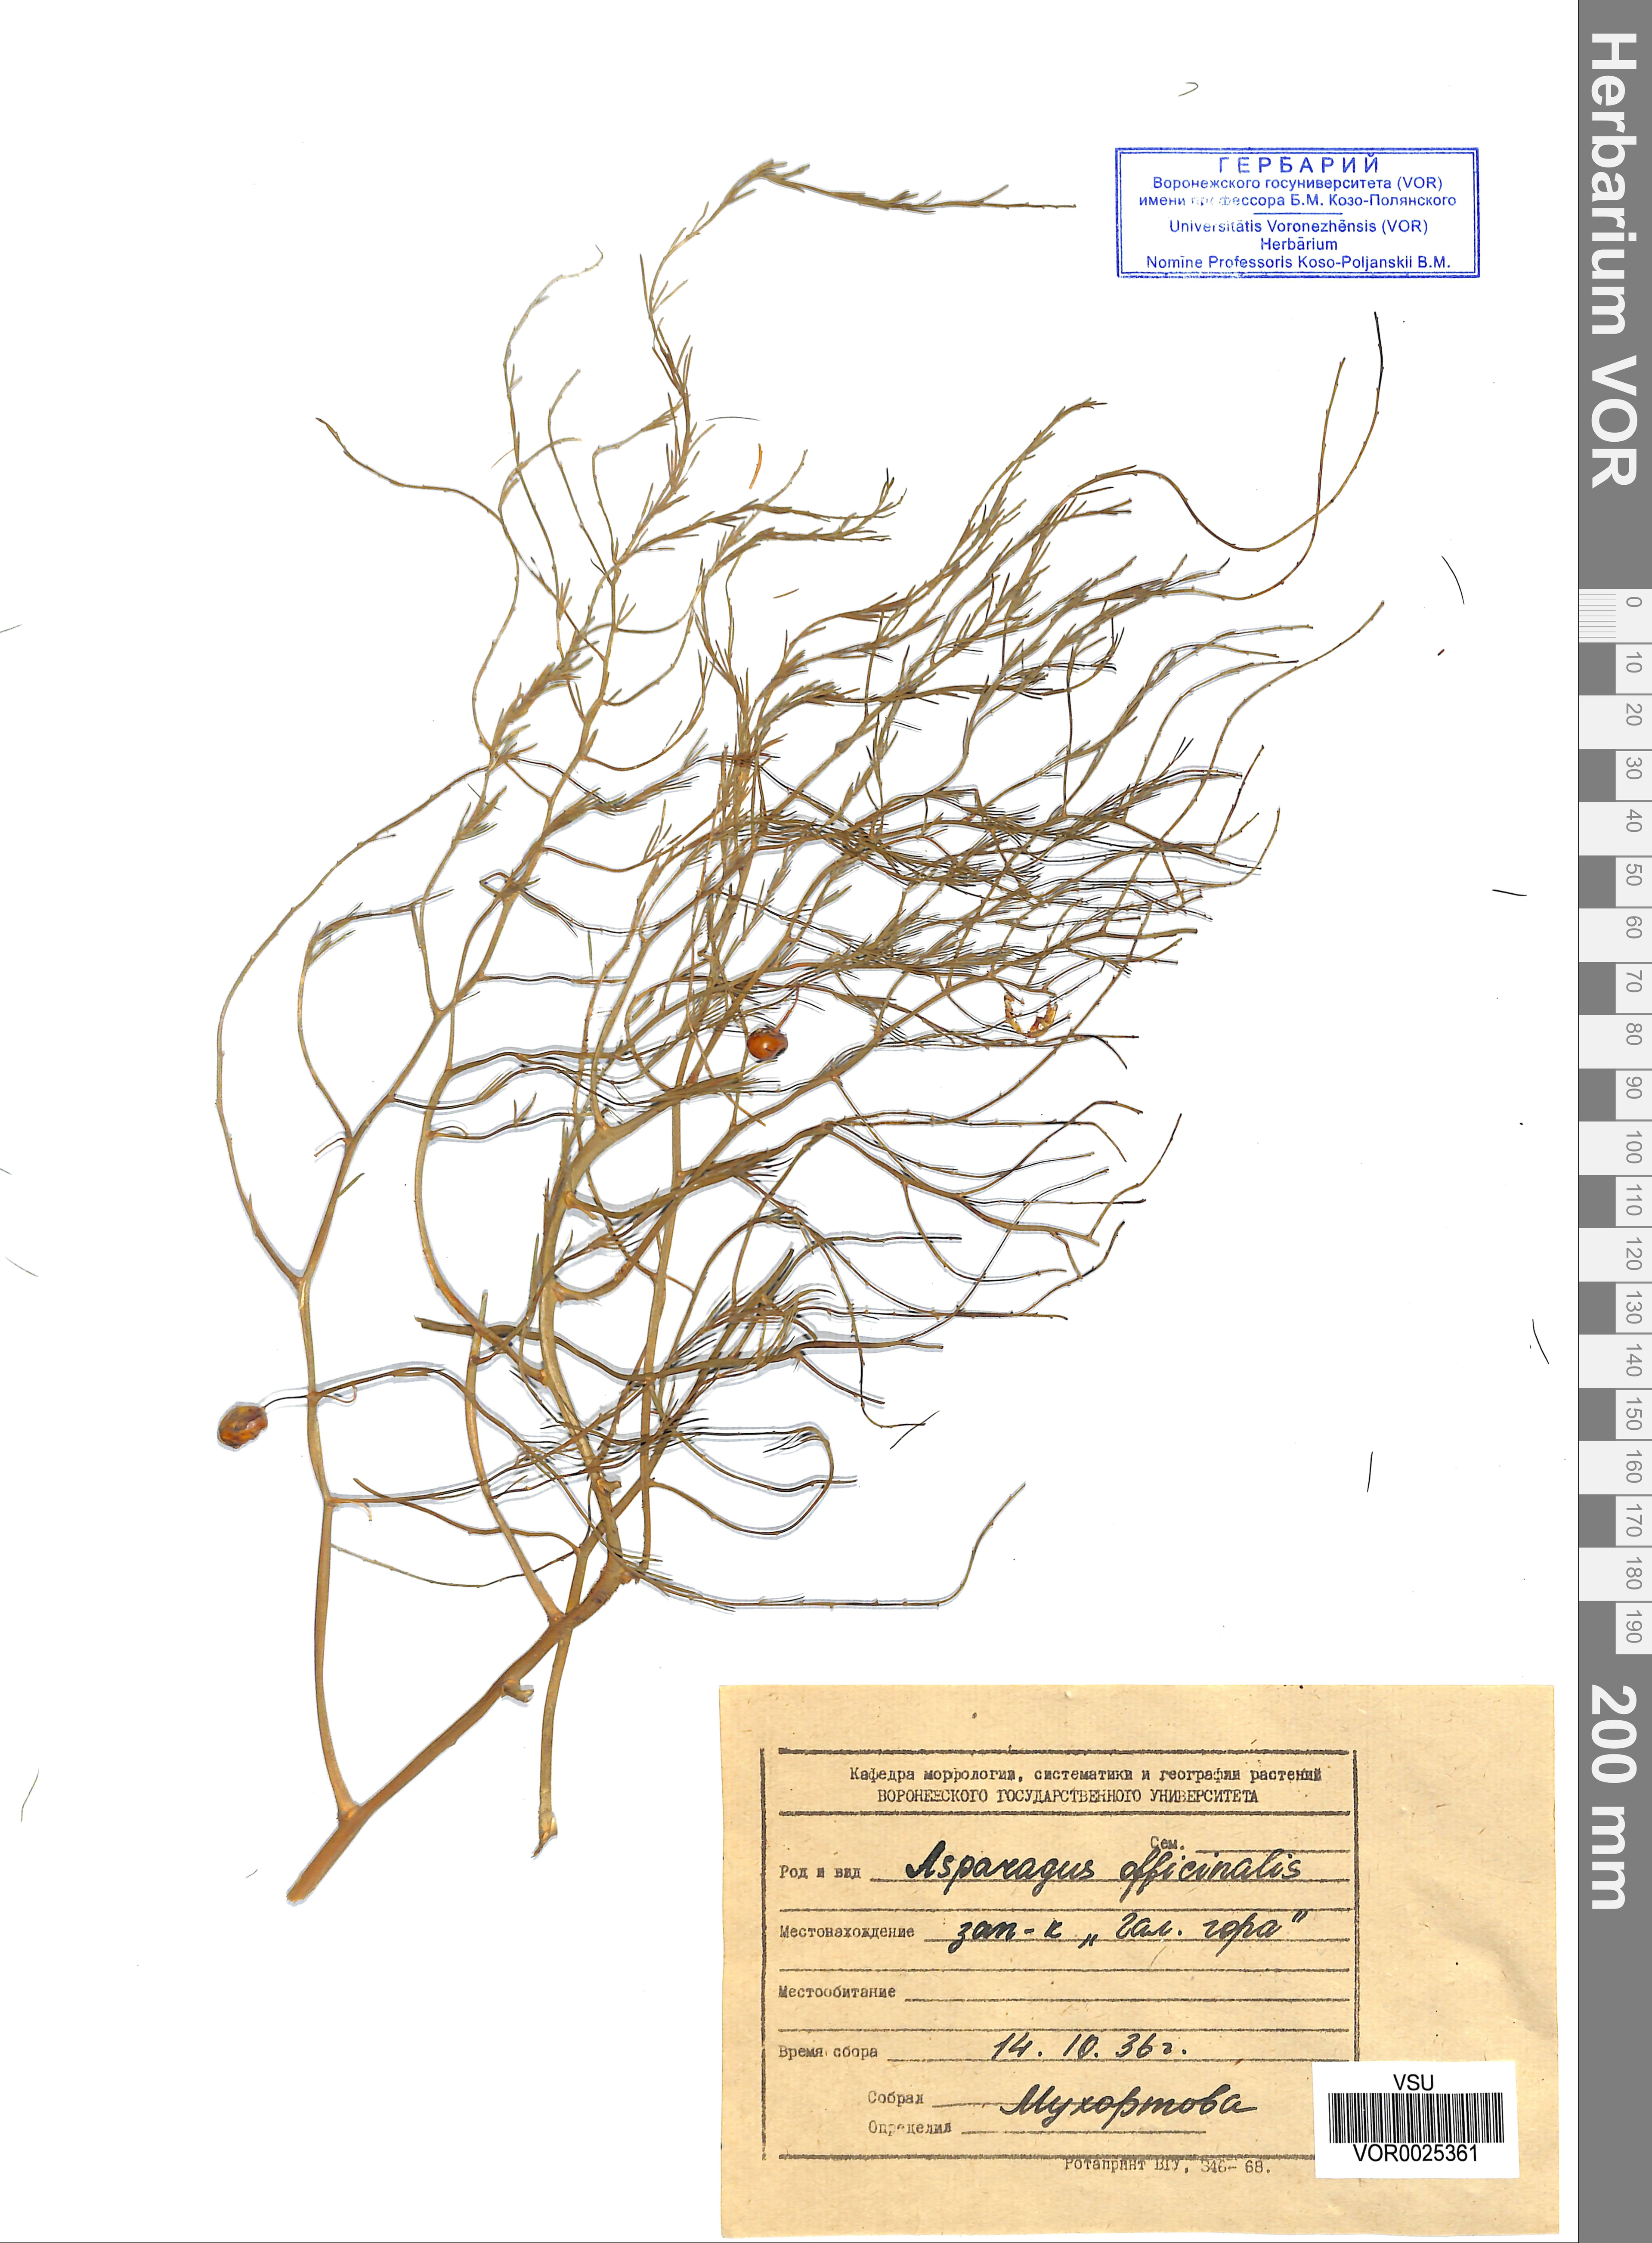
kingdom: Plantae
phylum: Tracheophyta
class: Liliopsida
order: Asparagales
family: Asparagaceae
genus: Asparagus
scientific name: Asparagus officinalis
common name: Garden asparagus
